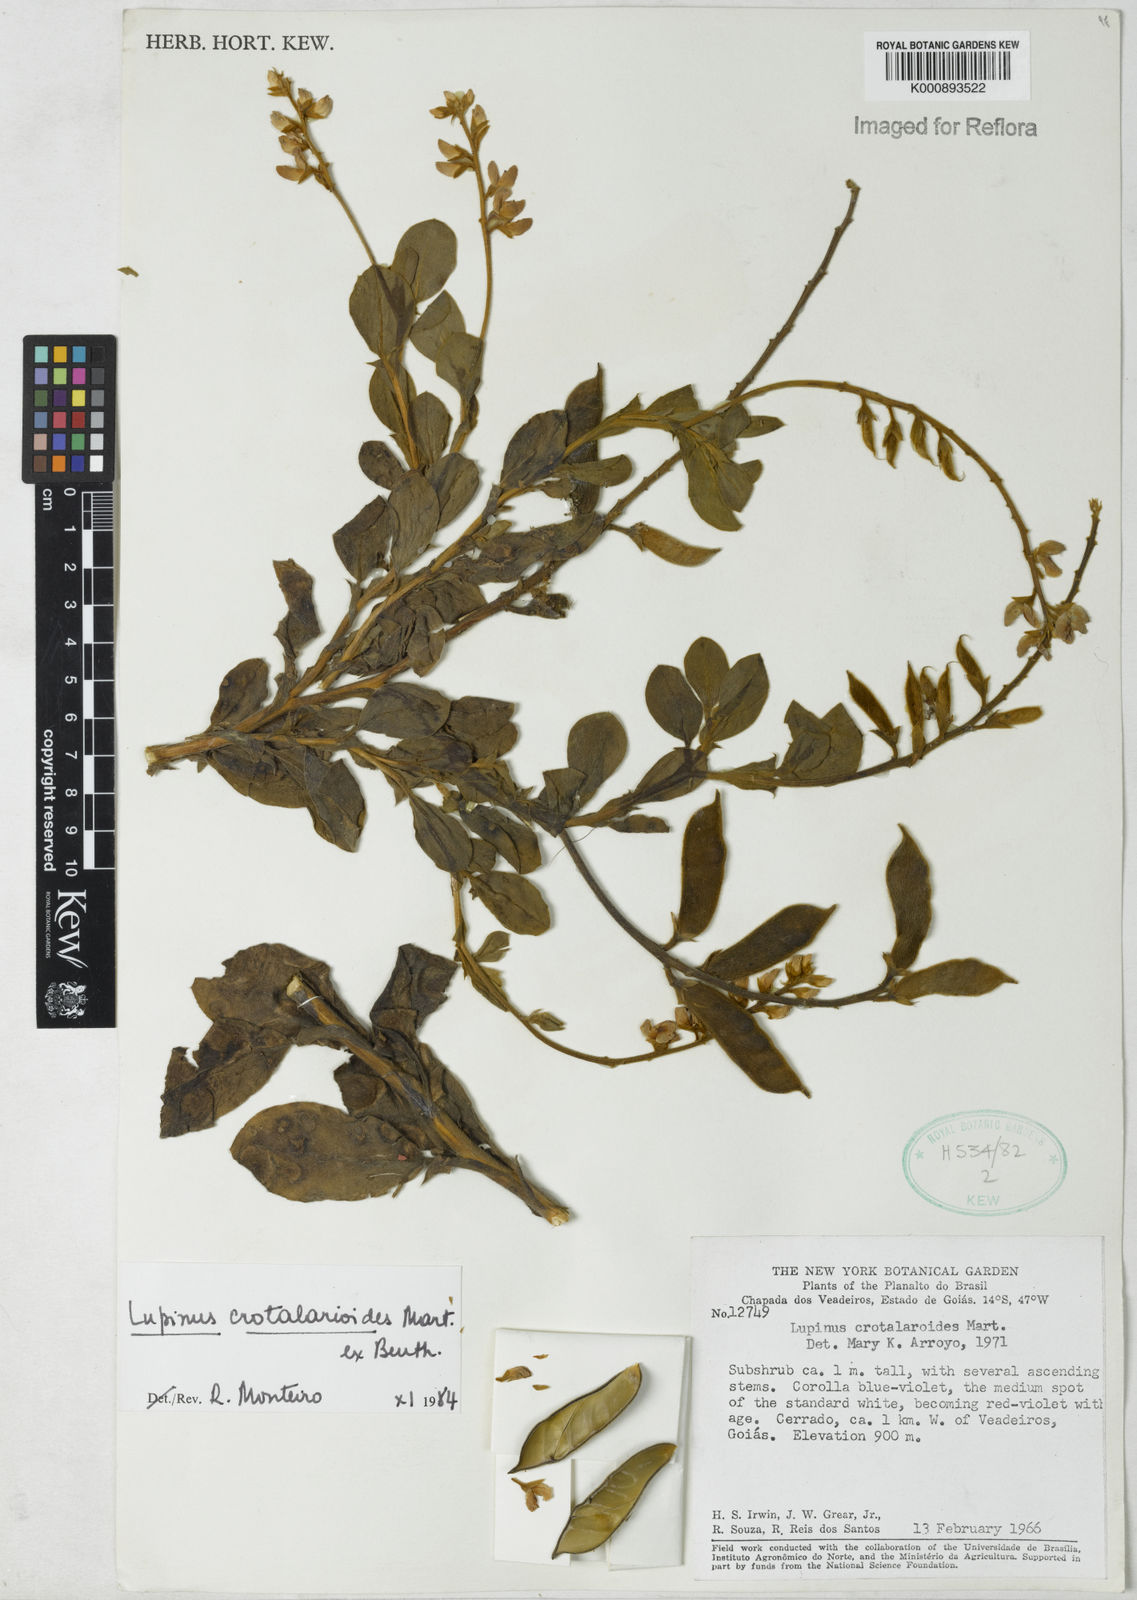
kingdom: Plantae
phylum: Tracheophyta
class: Magnoliopsida
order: Fabales
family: Fabaceae
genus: Lupinus
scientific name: Lupinus crotalarioides
